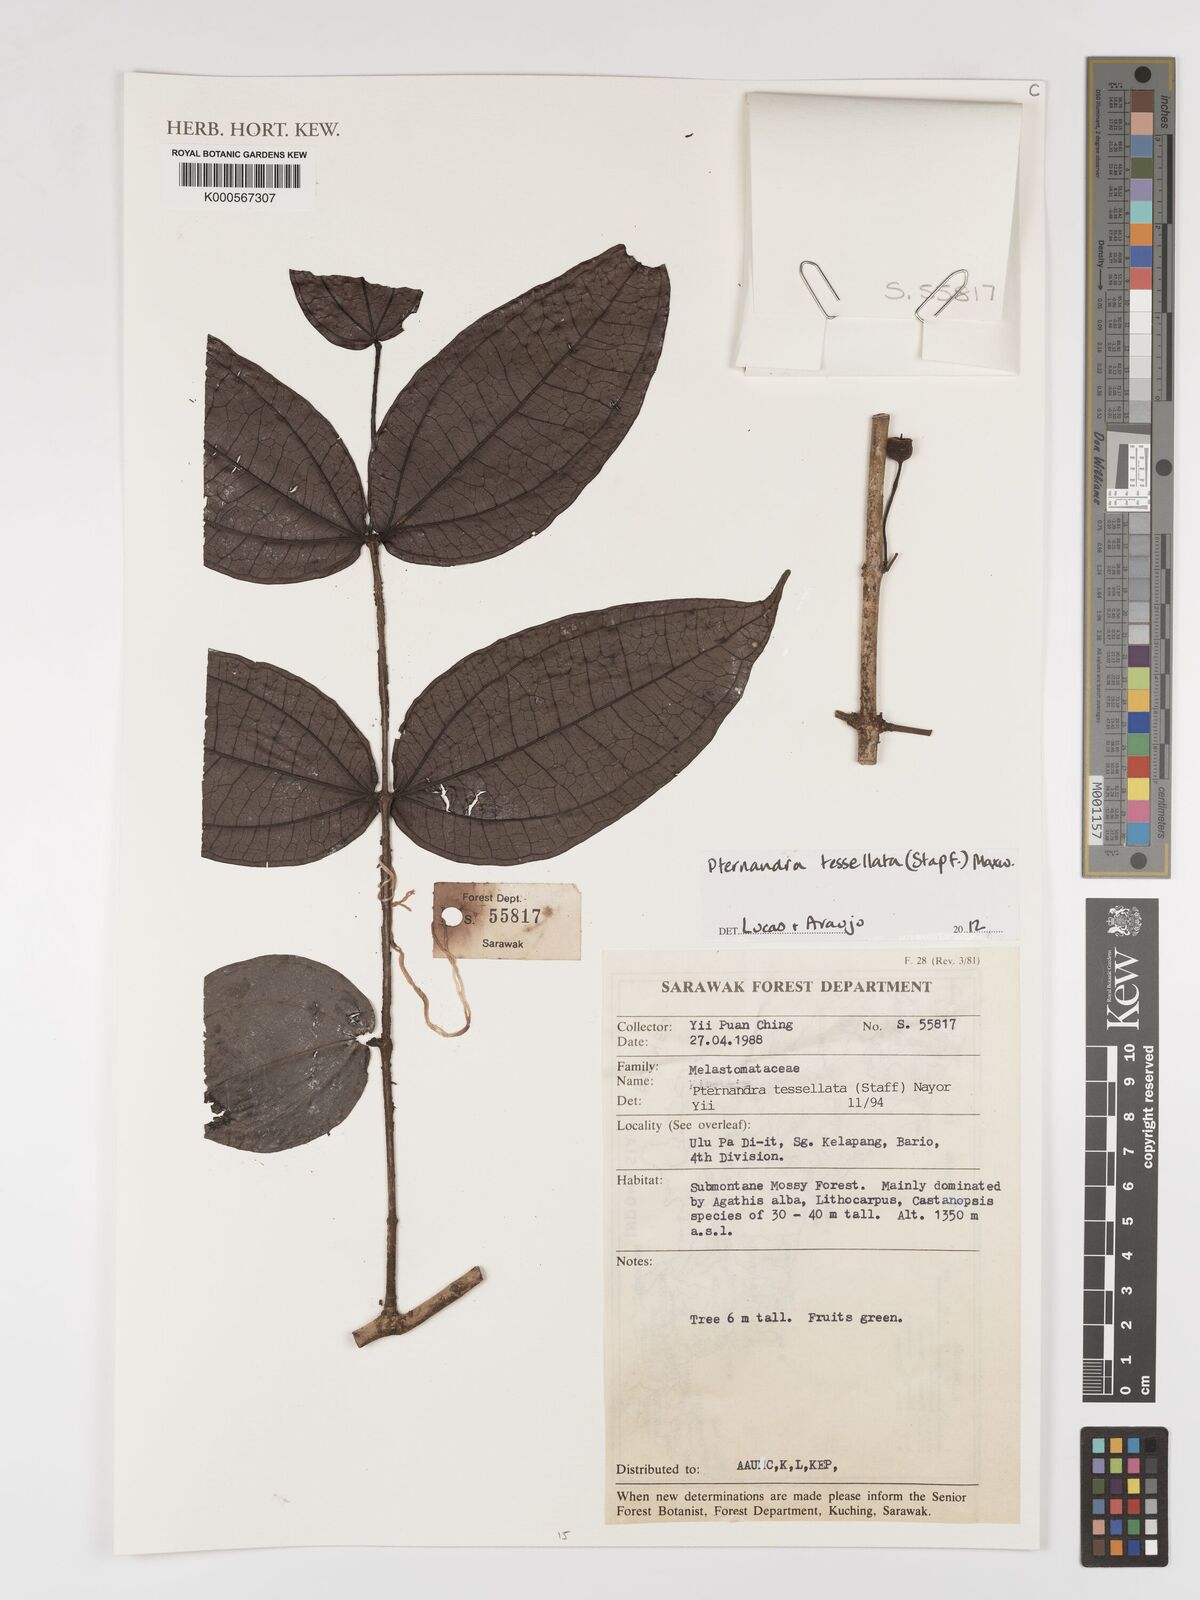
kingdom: Plantae
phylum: Tracheophyta
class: Magnoliopsida
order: Myrtales
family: Melastomataceae
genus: Pternandra
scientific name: Pternandra
